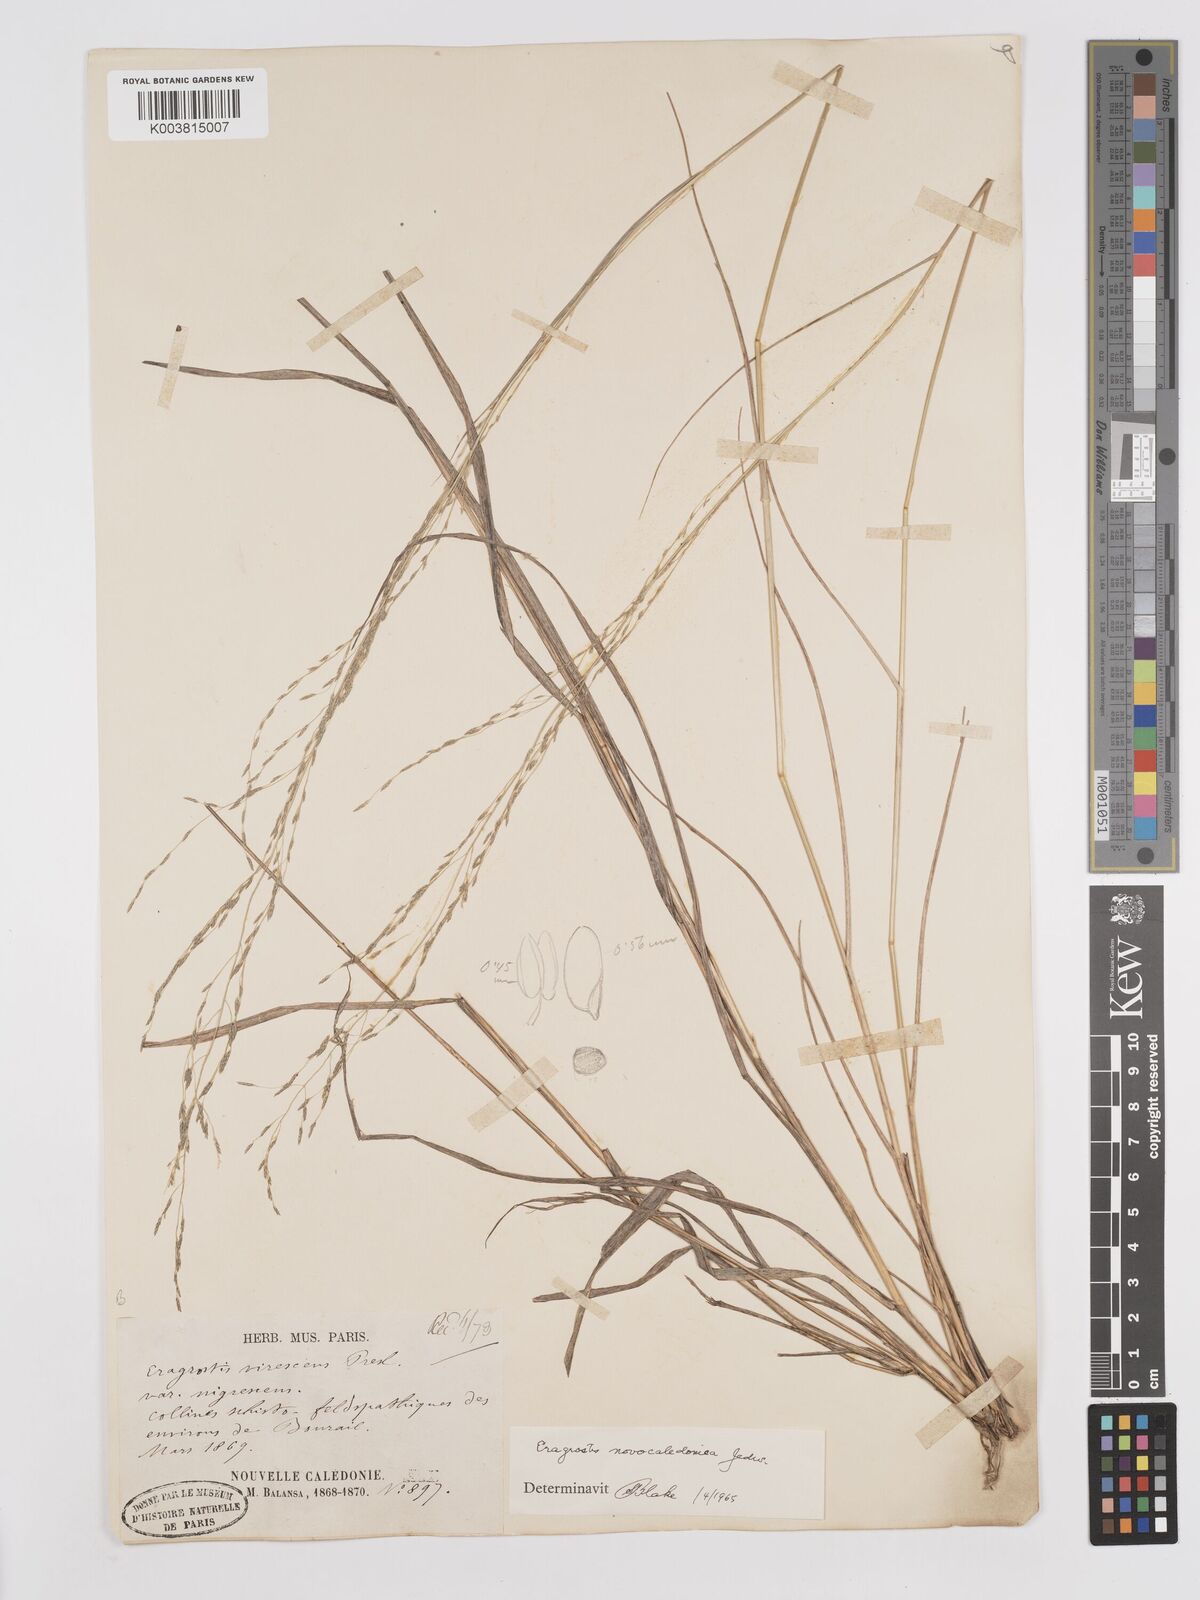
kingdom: Plantae
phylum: Tracheophyta
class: Liliopsida
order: Poales
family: Poaceae
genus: Eragrostis
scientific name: Eragrostis parviflora
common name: Weeping love-grass
